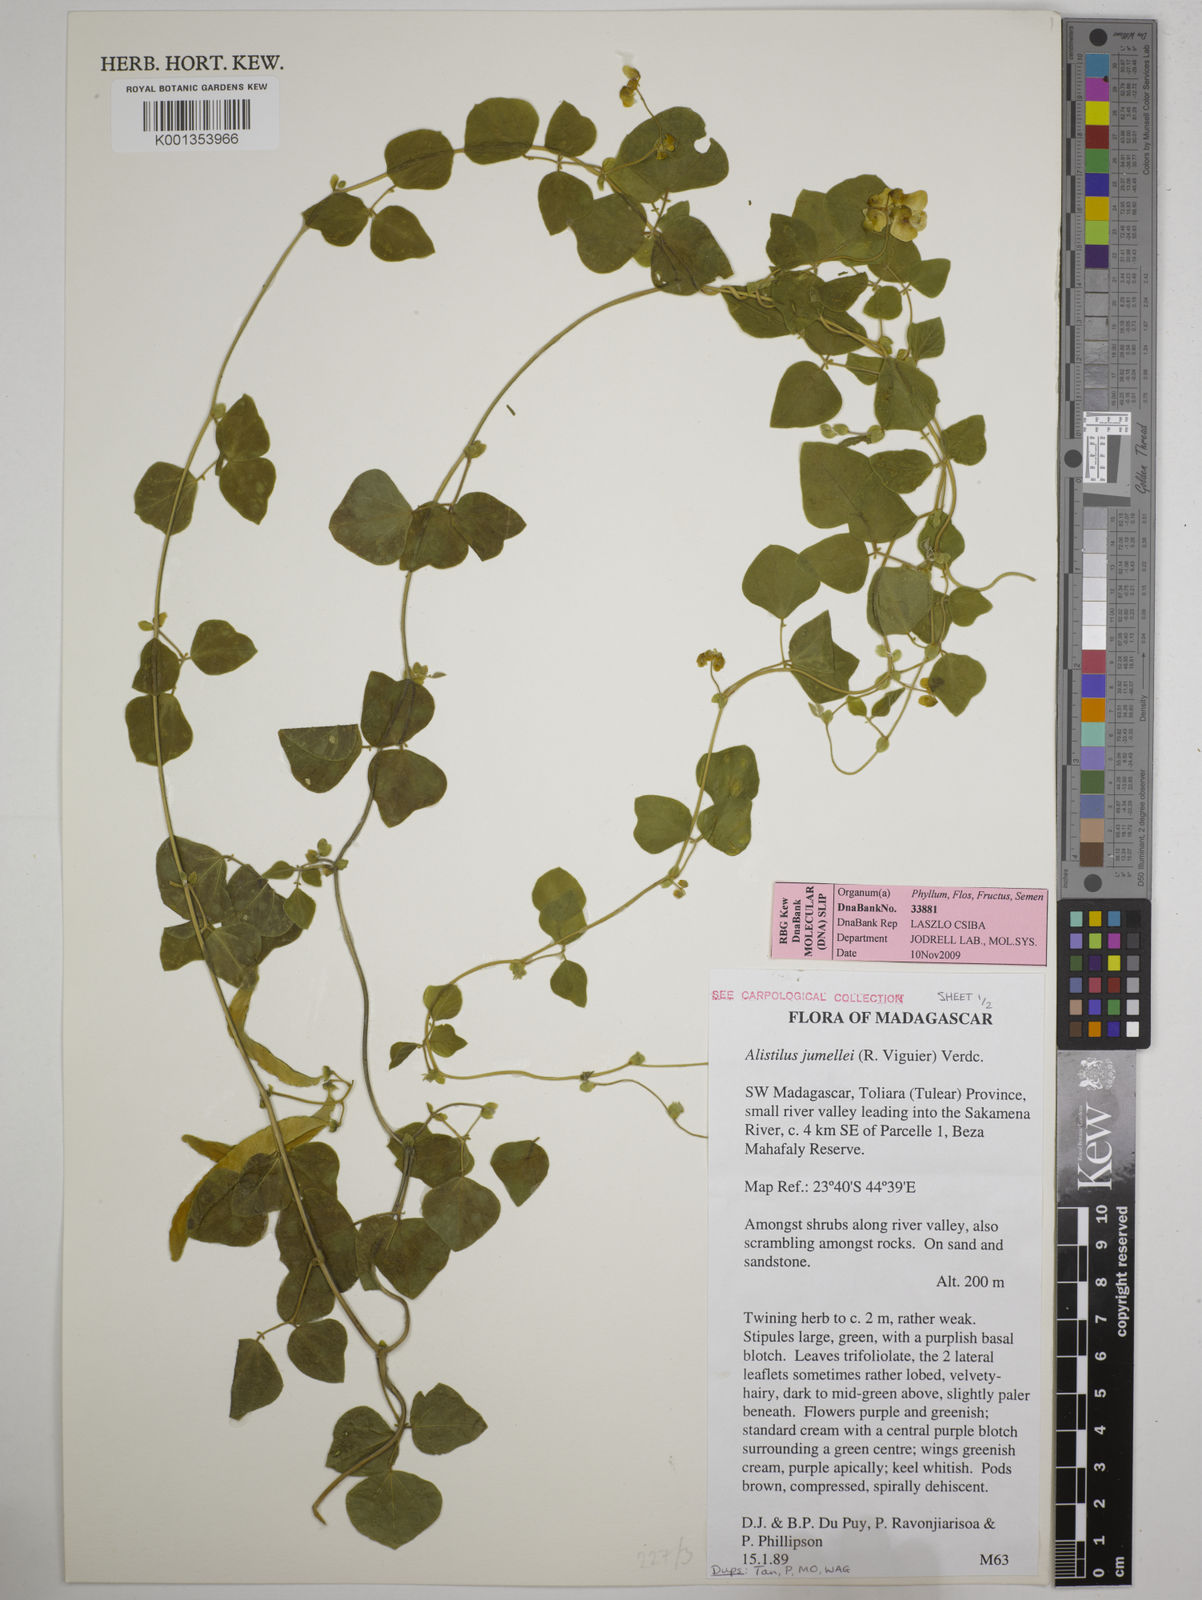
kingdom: Plantae
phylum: Tracheophyta
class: Magnoliopsida
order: Fabales
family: Fabaceae
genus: Alistilus
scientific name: Alistilus jumellei
